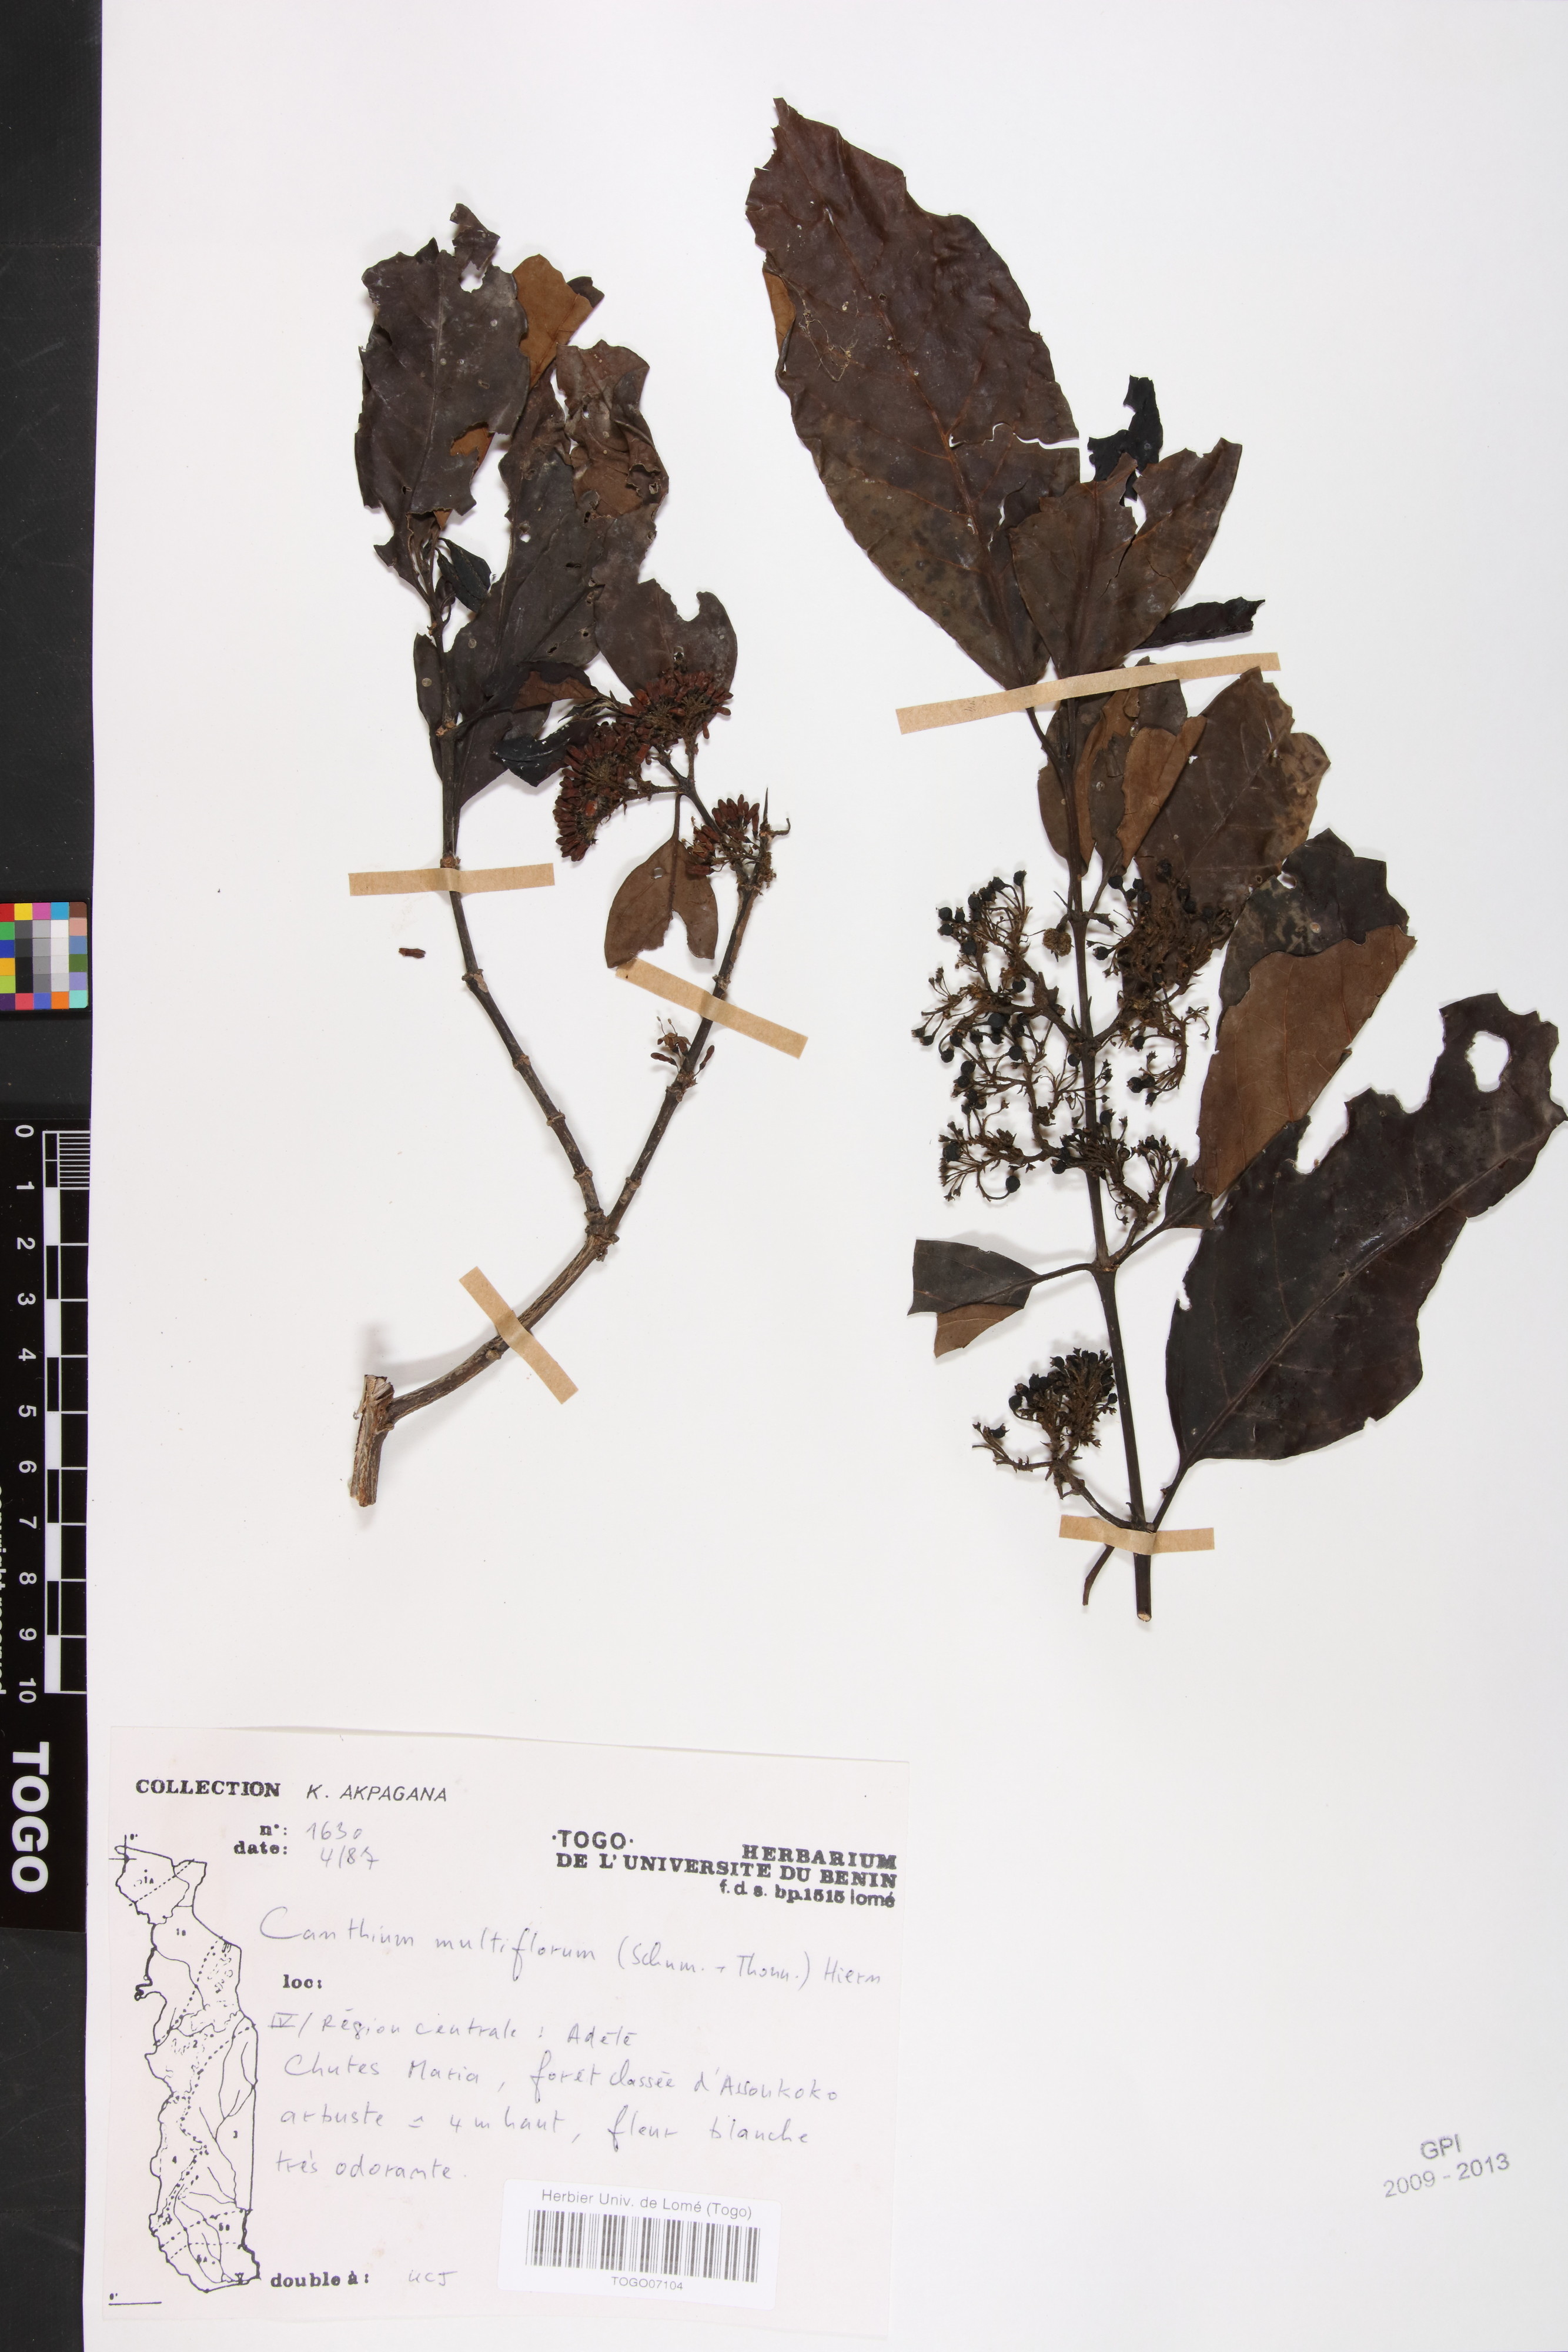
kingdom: Plantae
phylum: Tracheophyta
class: Magnoliopsida
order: Gentianales
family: Rubiaceae
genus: Keetia
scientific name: Keetia multiflora
